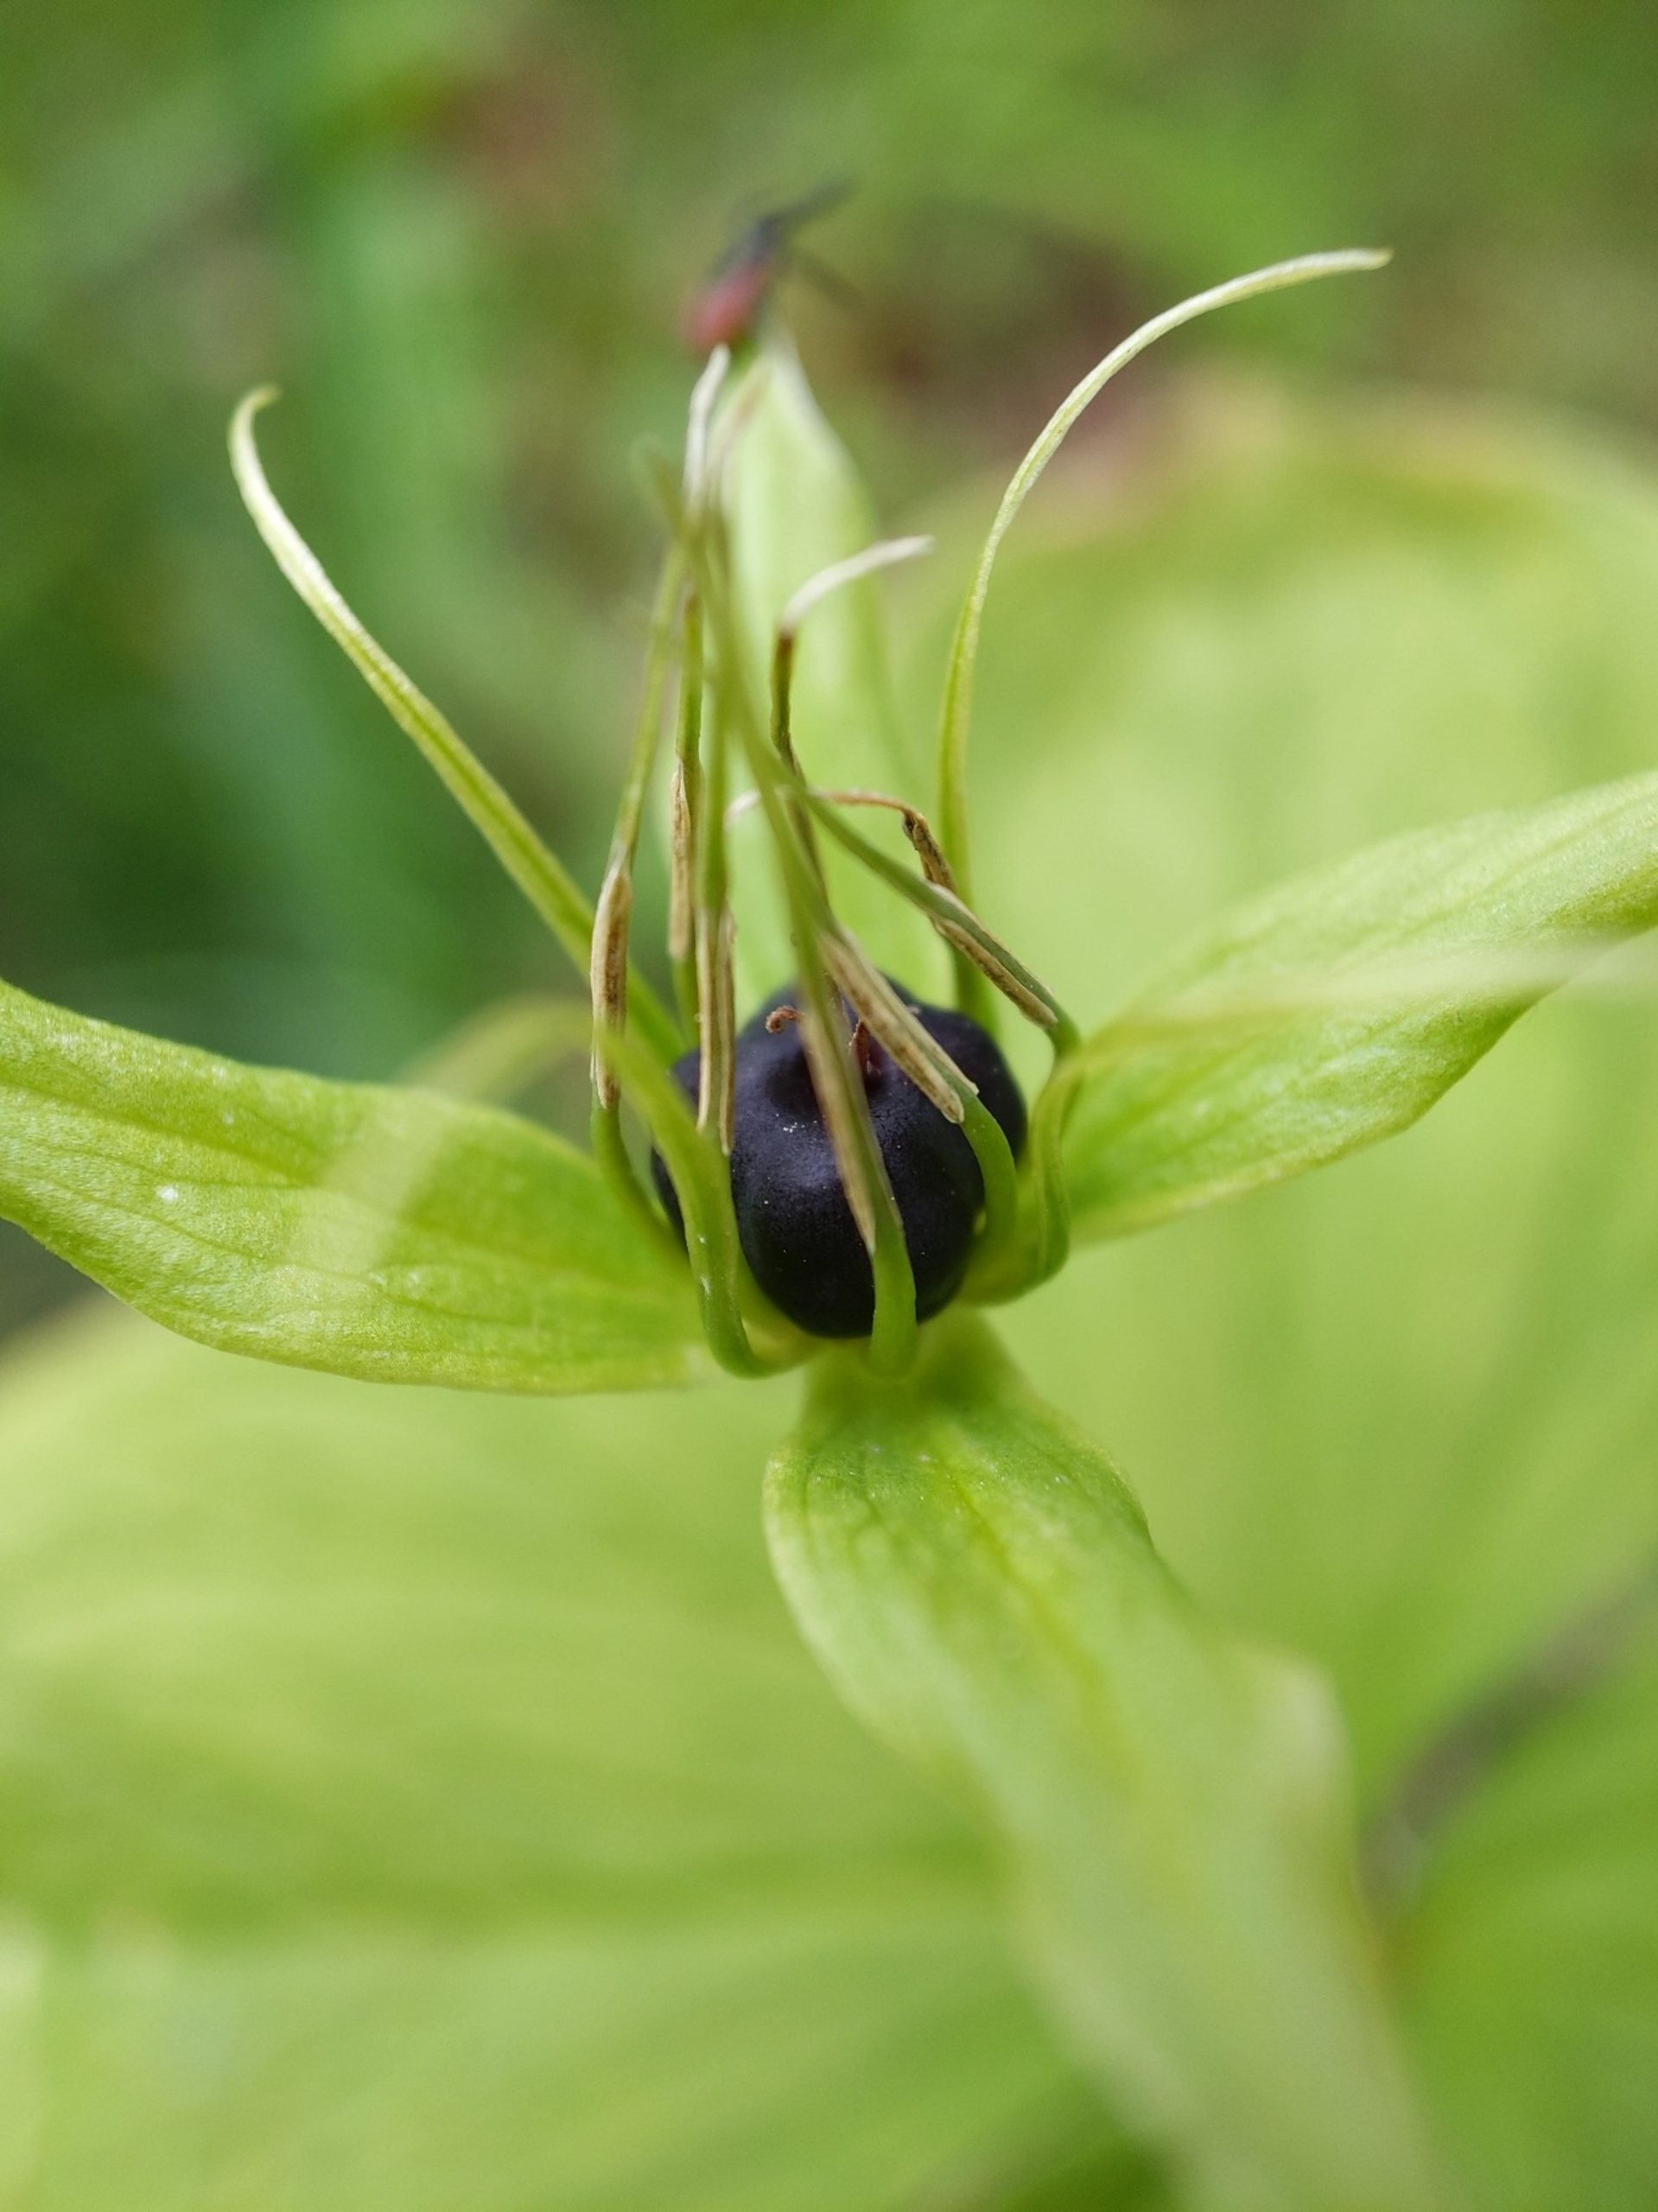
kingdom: Plantae
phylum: Tracheophyta
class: Liliopsida
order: Liliales
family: Melanthiaceae
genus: Paris
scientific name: Paris quadrifolia
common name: Firblad
